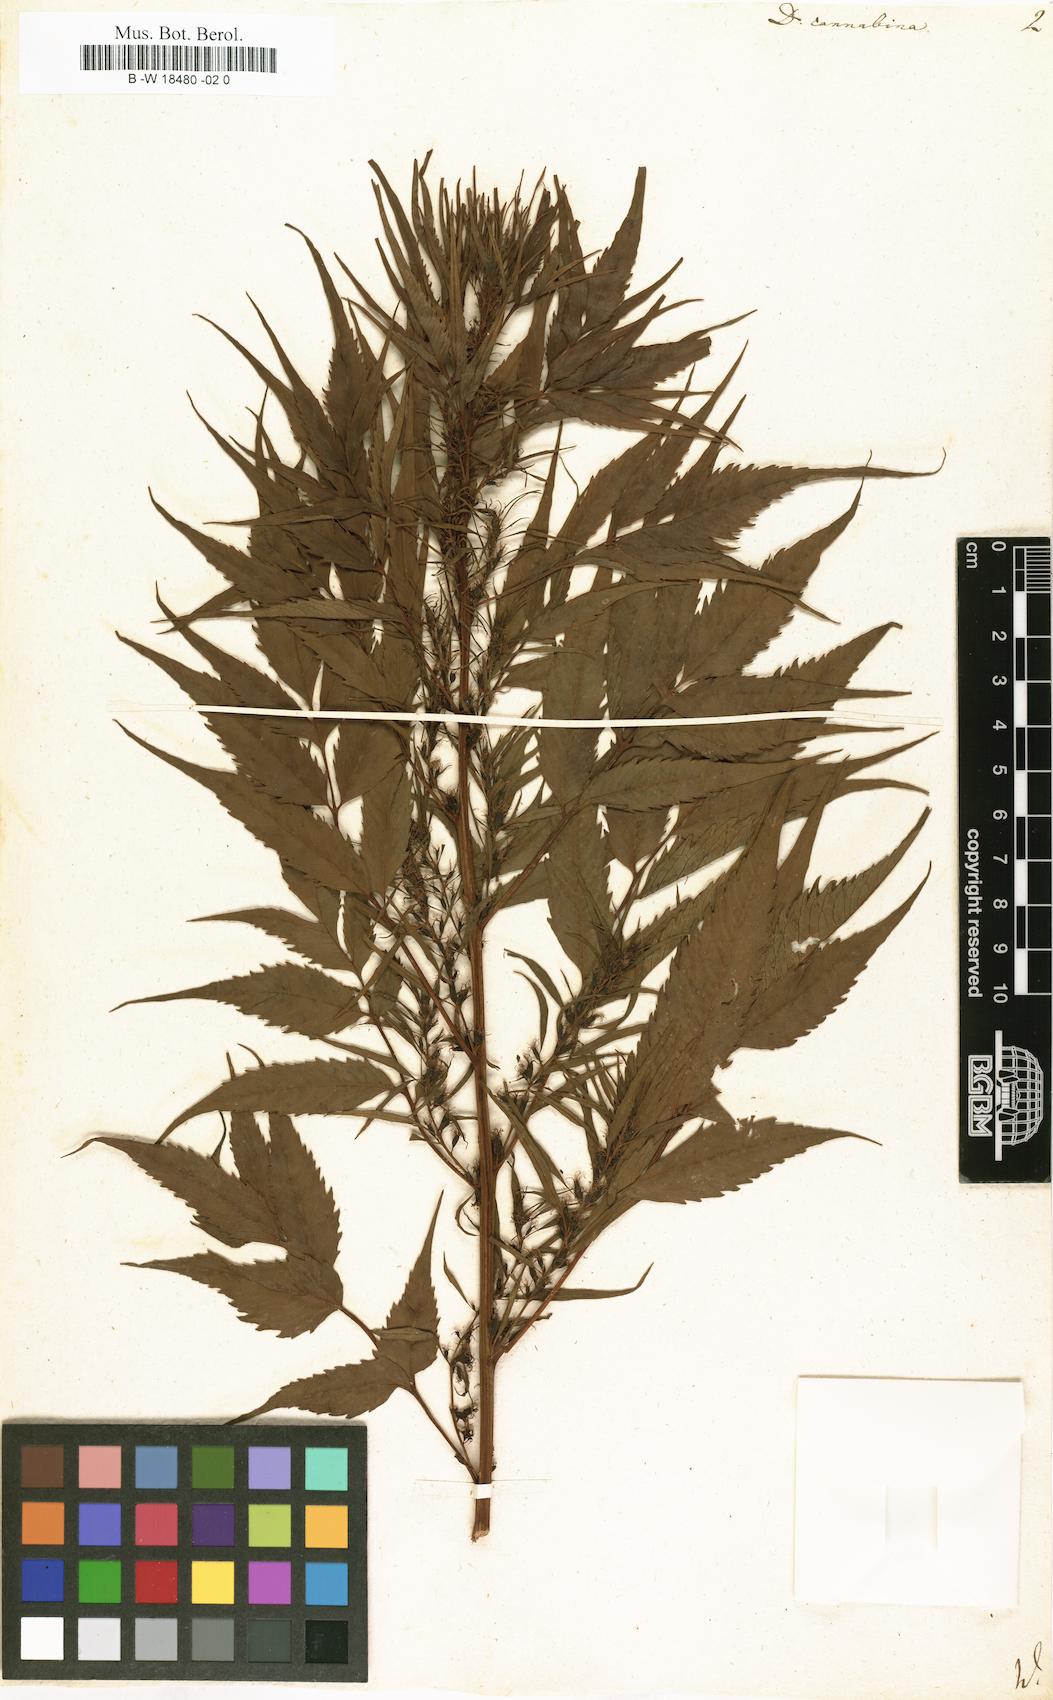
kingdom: Plantae
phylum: Tracheophyta
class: Magnoliopsida
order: Cucurbitales
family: Datiscaceae
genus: Datisca
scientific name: Datisca cannabina
